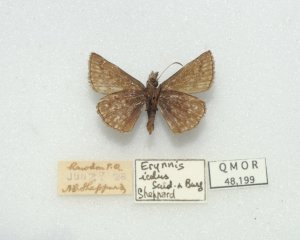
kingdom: Animalia
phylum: Arthropoda
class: Insecta
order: Lepidoptera
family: Hesperiidae
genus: Erynnis
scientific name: Erynnis icelus
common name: Dreamy Duskywing
